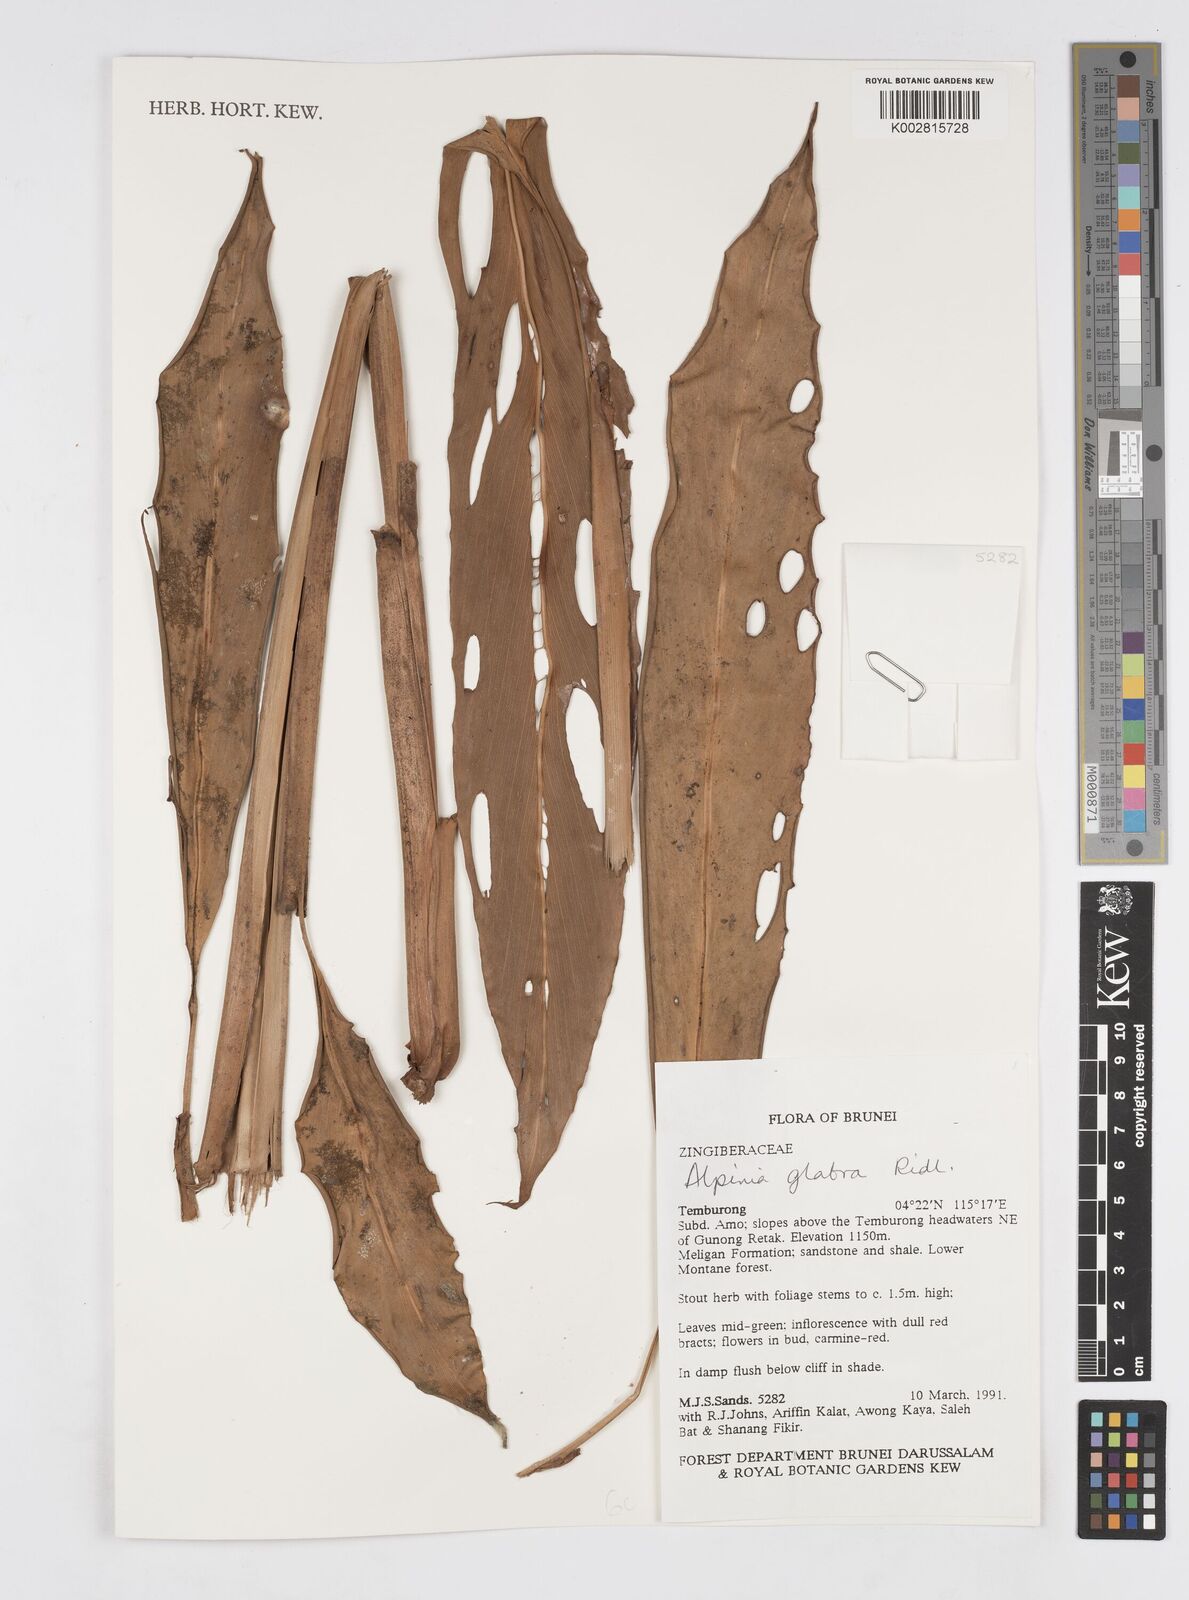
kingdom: Plantae
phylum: Tracheophyta
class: Liliopsida
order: Zingiberales
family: Zingiberaceae
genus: Alpinia
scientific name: Alpinia glabra
